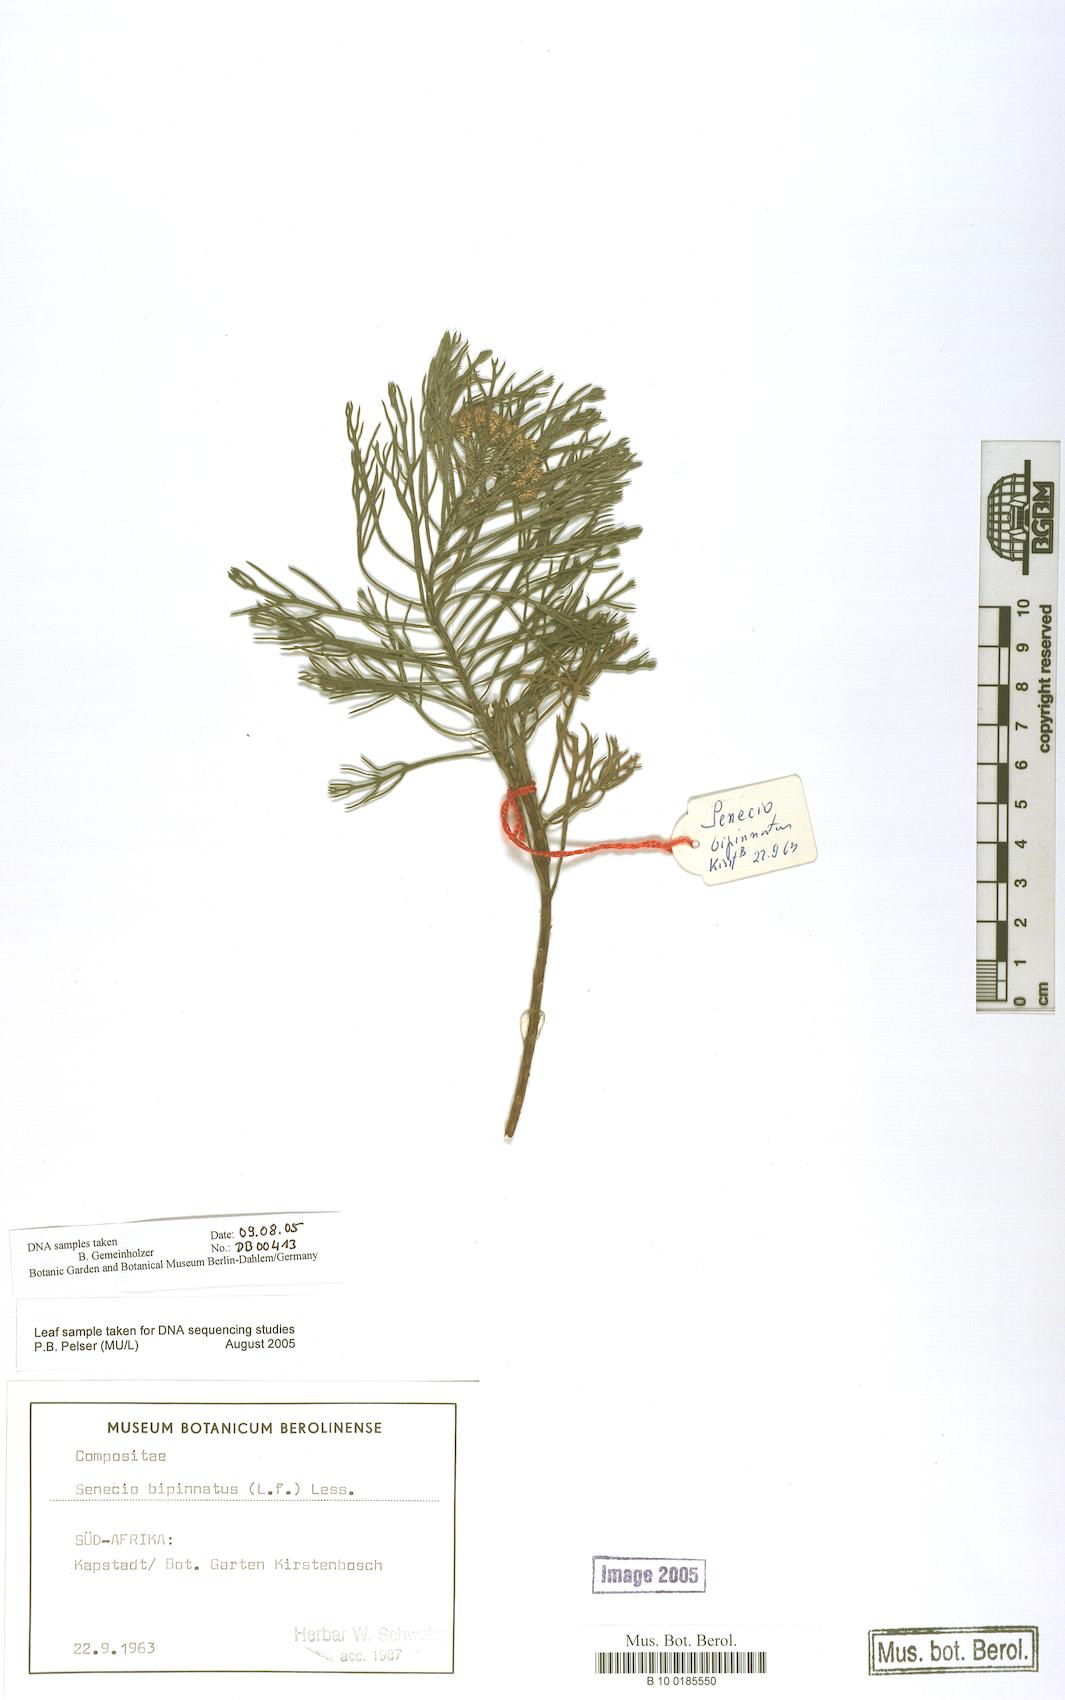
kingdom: Plantae
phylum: Tracheophyta
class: Magnoliopsida
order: Asterales
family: Asteraceae
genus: Senecio
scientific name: Senecio bipinnatus
